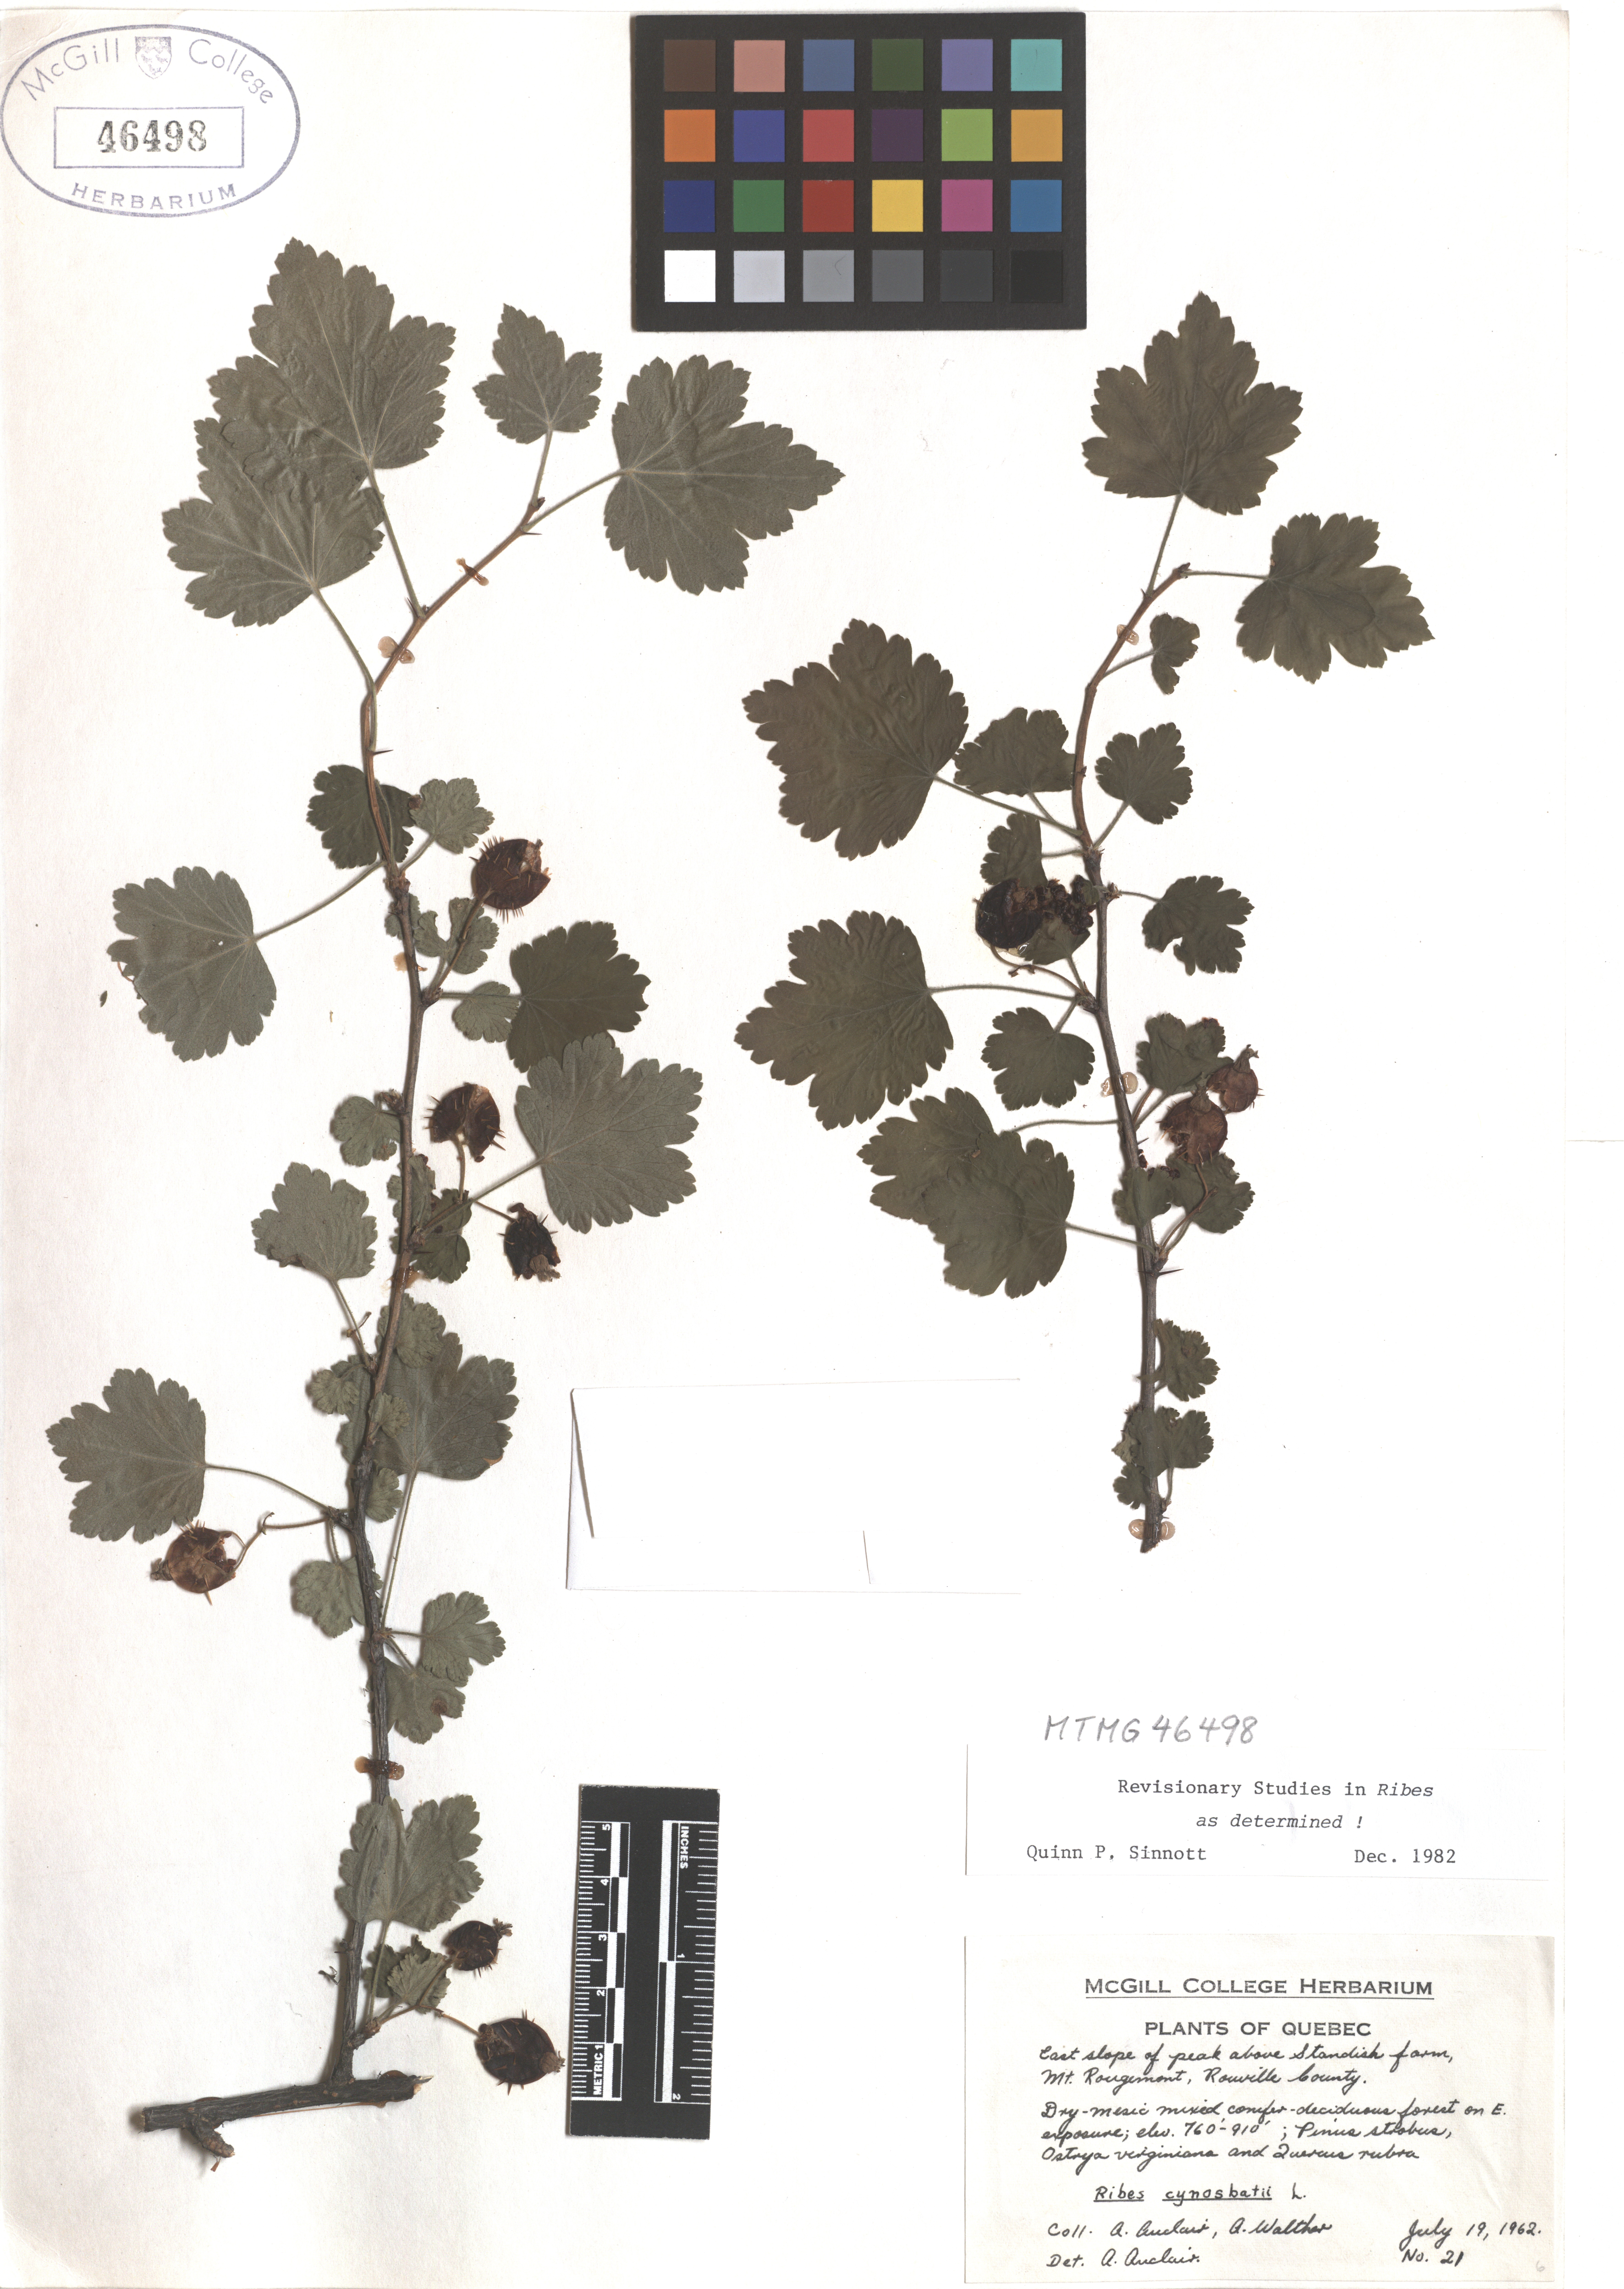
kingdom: Plantae
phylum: Tracheophyta
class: Magnoliopsida
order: Saxifragales
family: Grossulariaceae
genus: Ribes
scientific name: Ribes cynosbati
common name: American gooseberry
